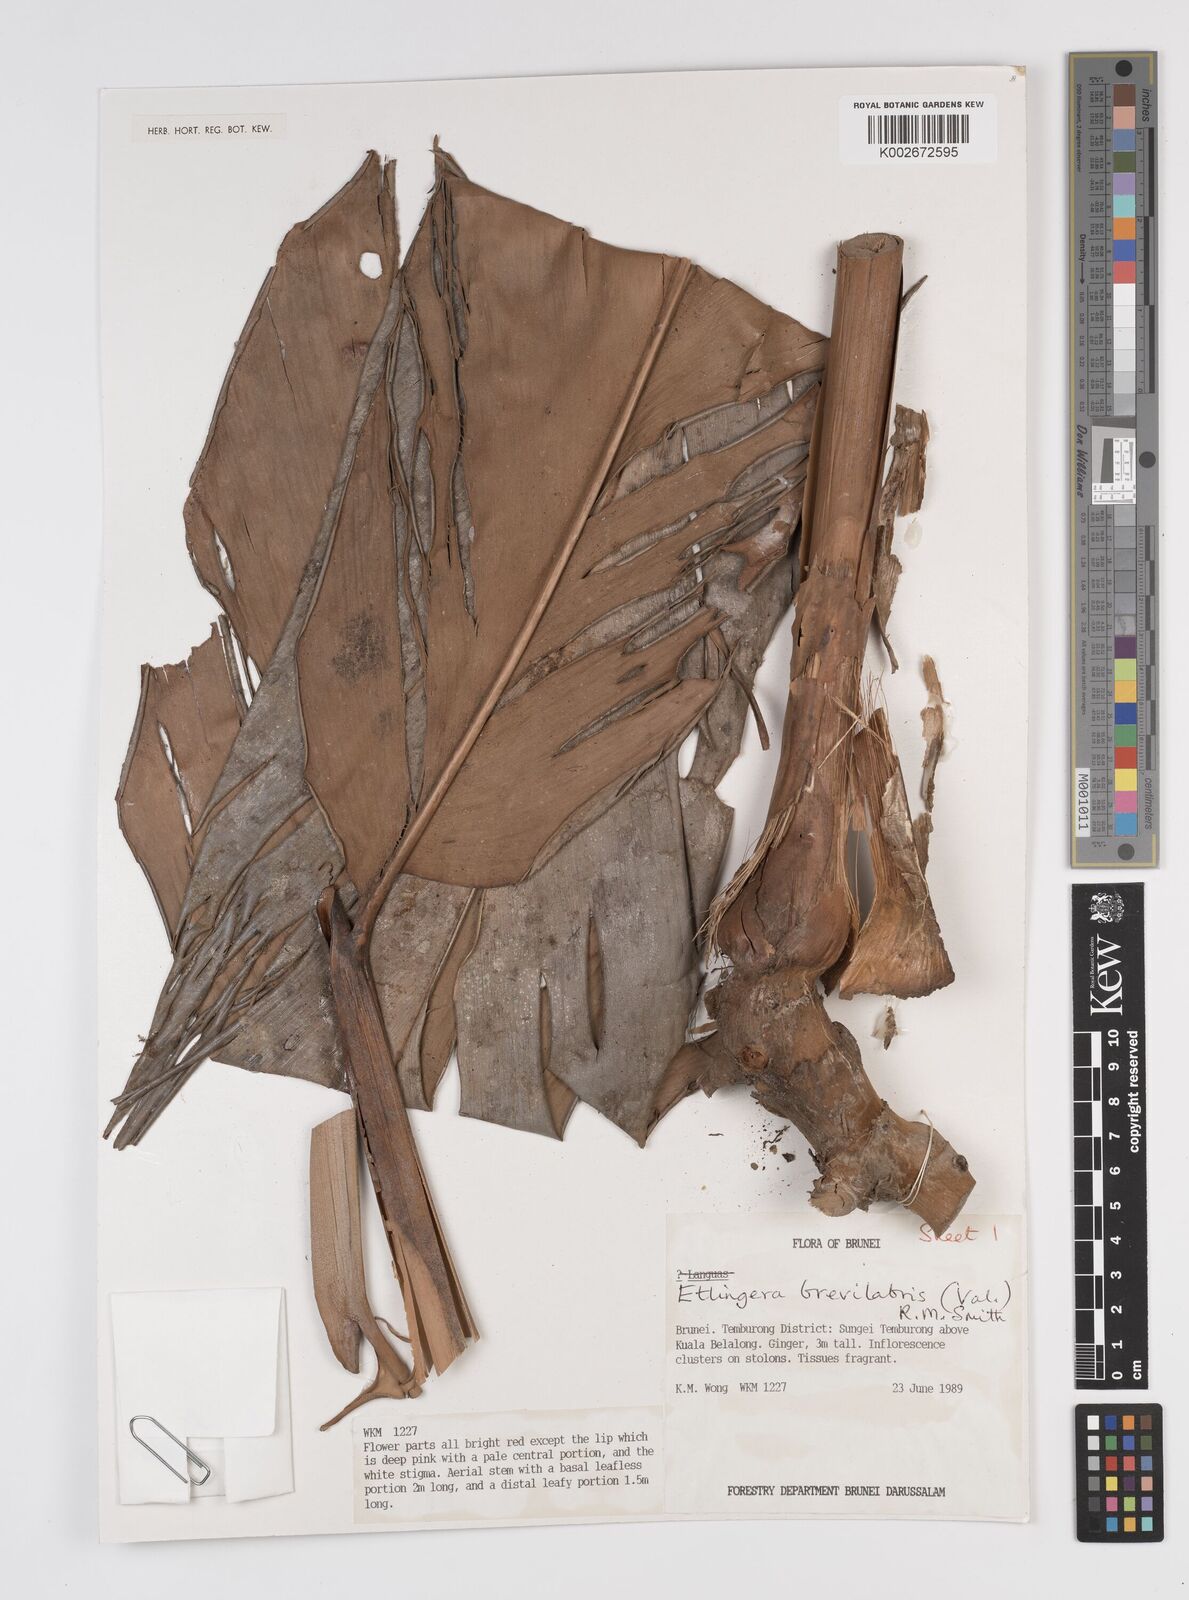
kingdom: Plantae
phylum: Tracheophyta
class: Liliopsida
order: Zingiberales
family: Zingiberaceae
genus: Etlingera
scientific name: Etlingera brevilabrum
